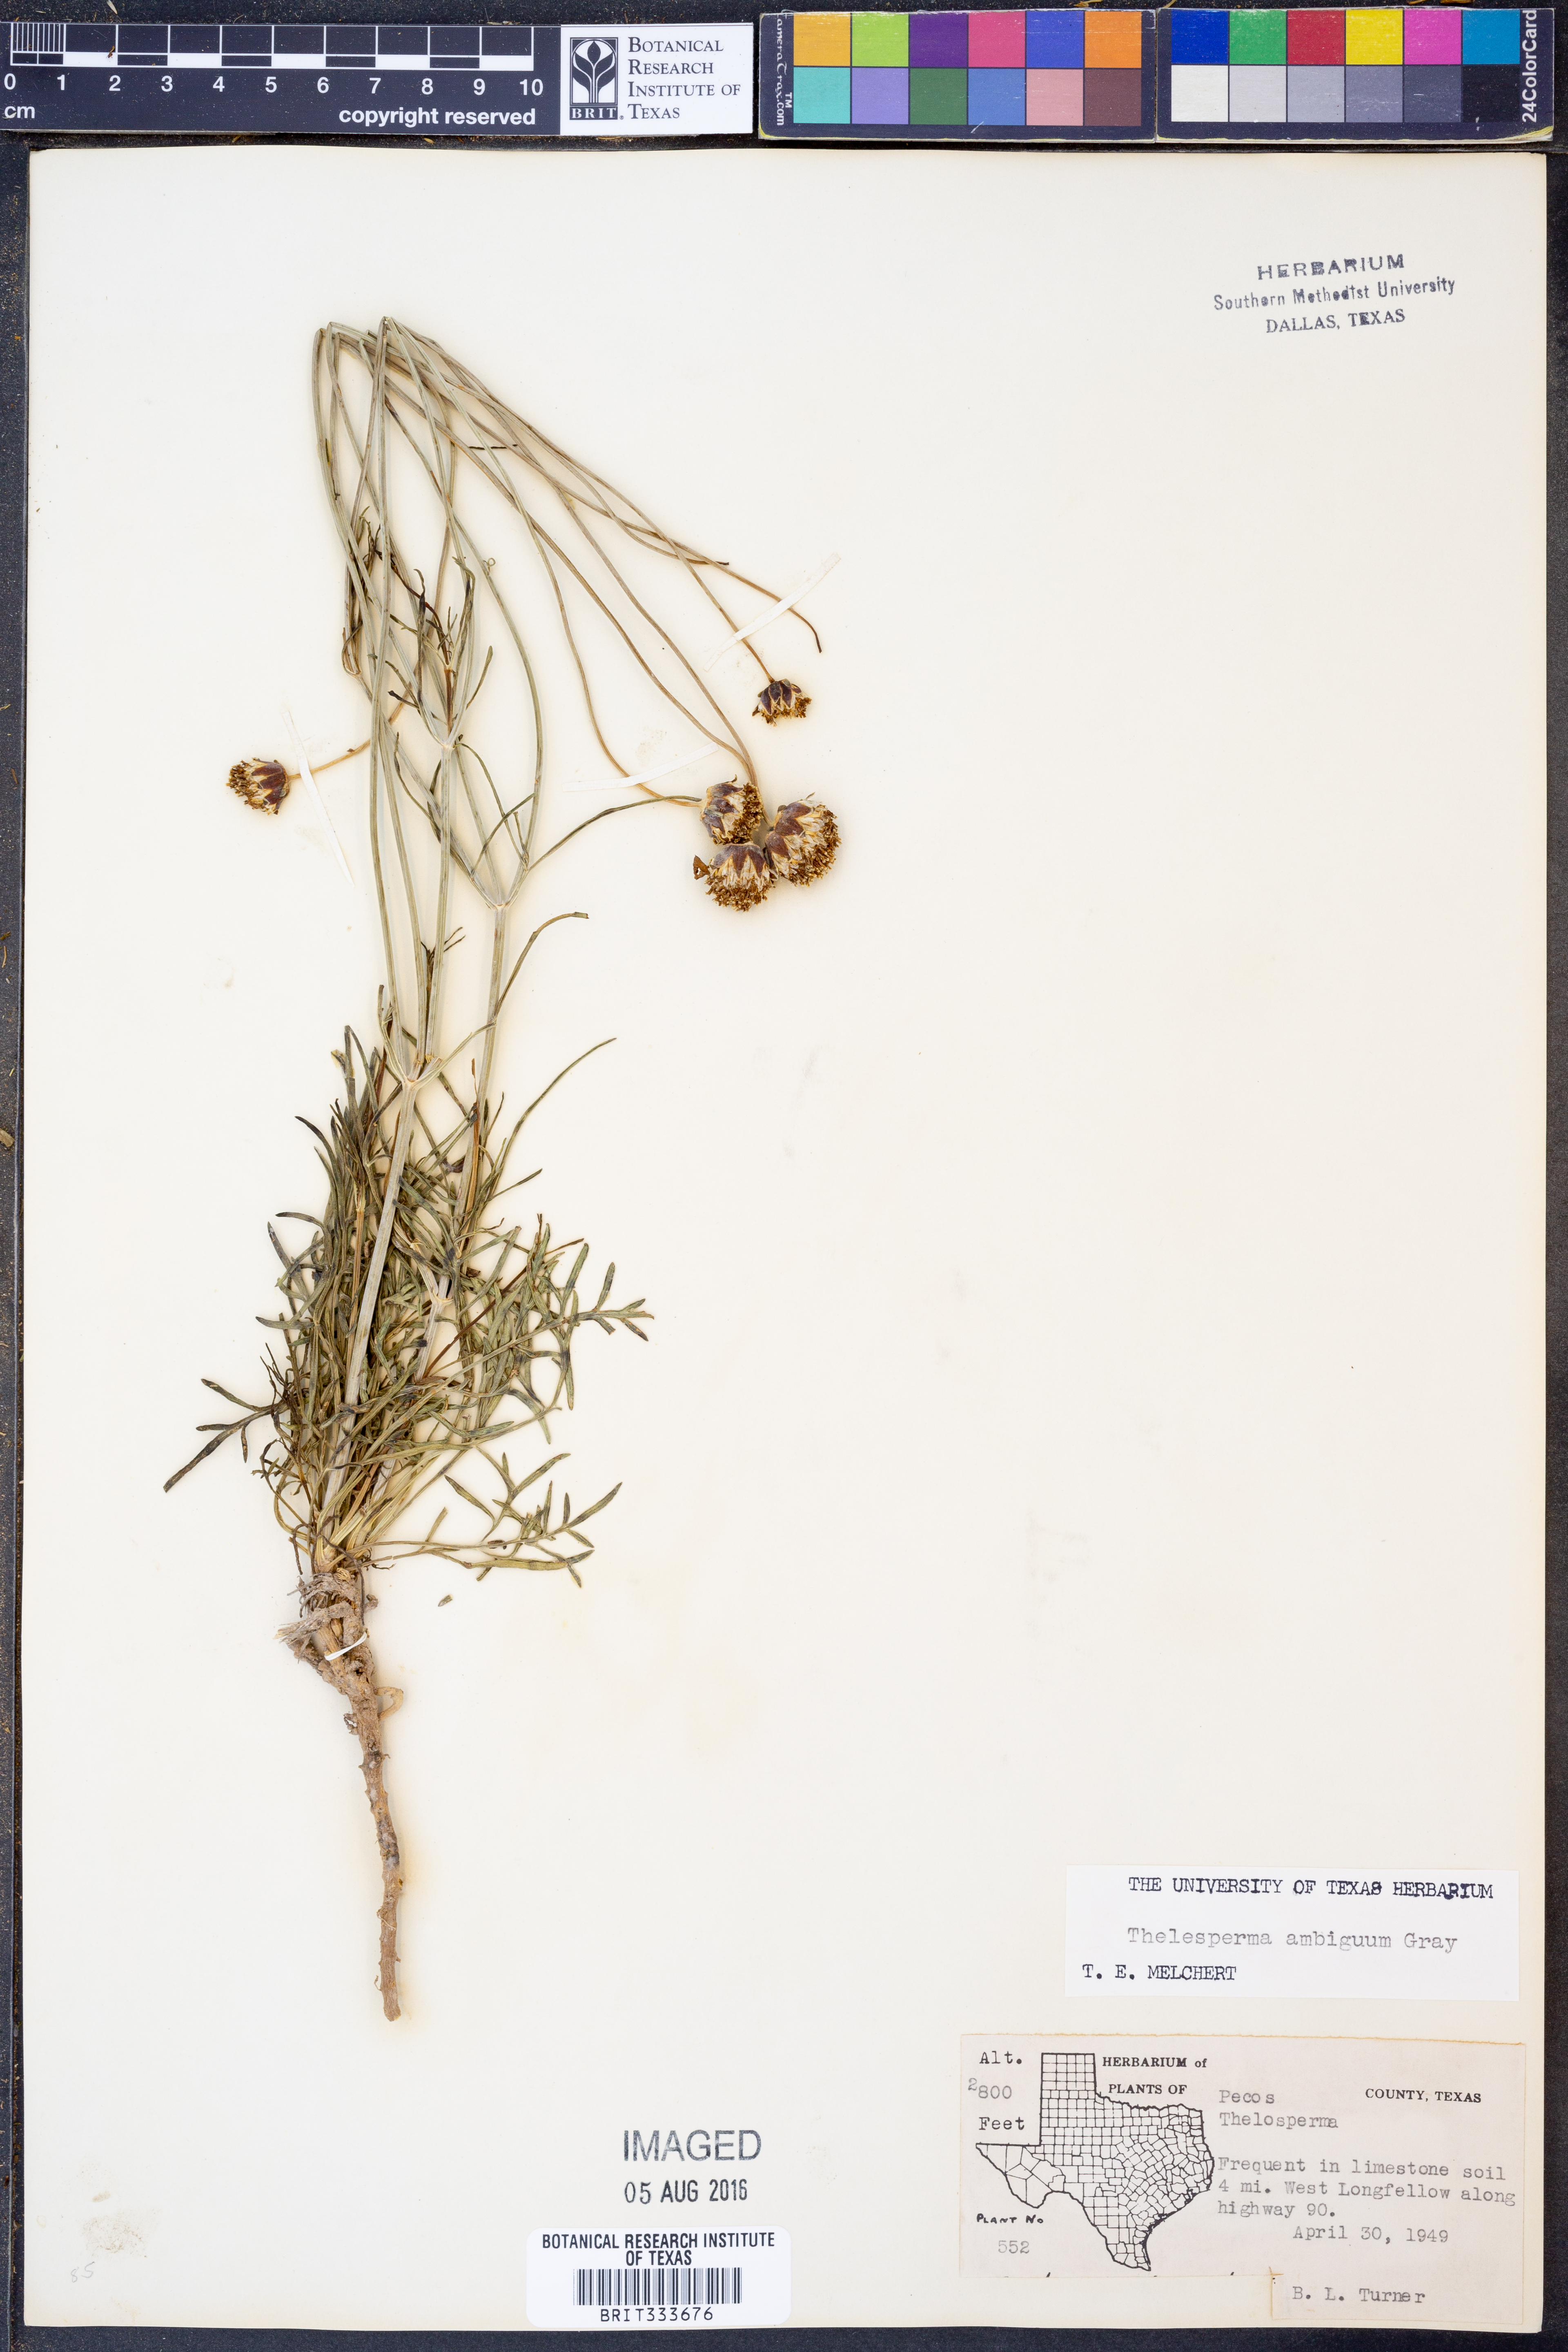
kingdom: Plantae
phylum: Tracheophyta
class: Magnoliopsida
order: Asterales
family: Asteraceae
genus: Thelesperma
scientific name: Thelesperma ambiguum
